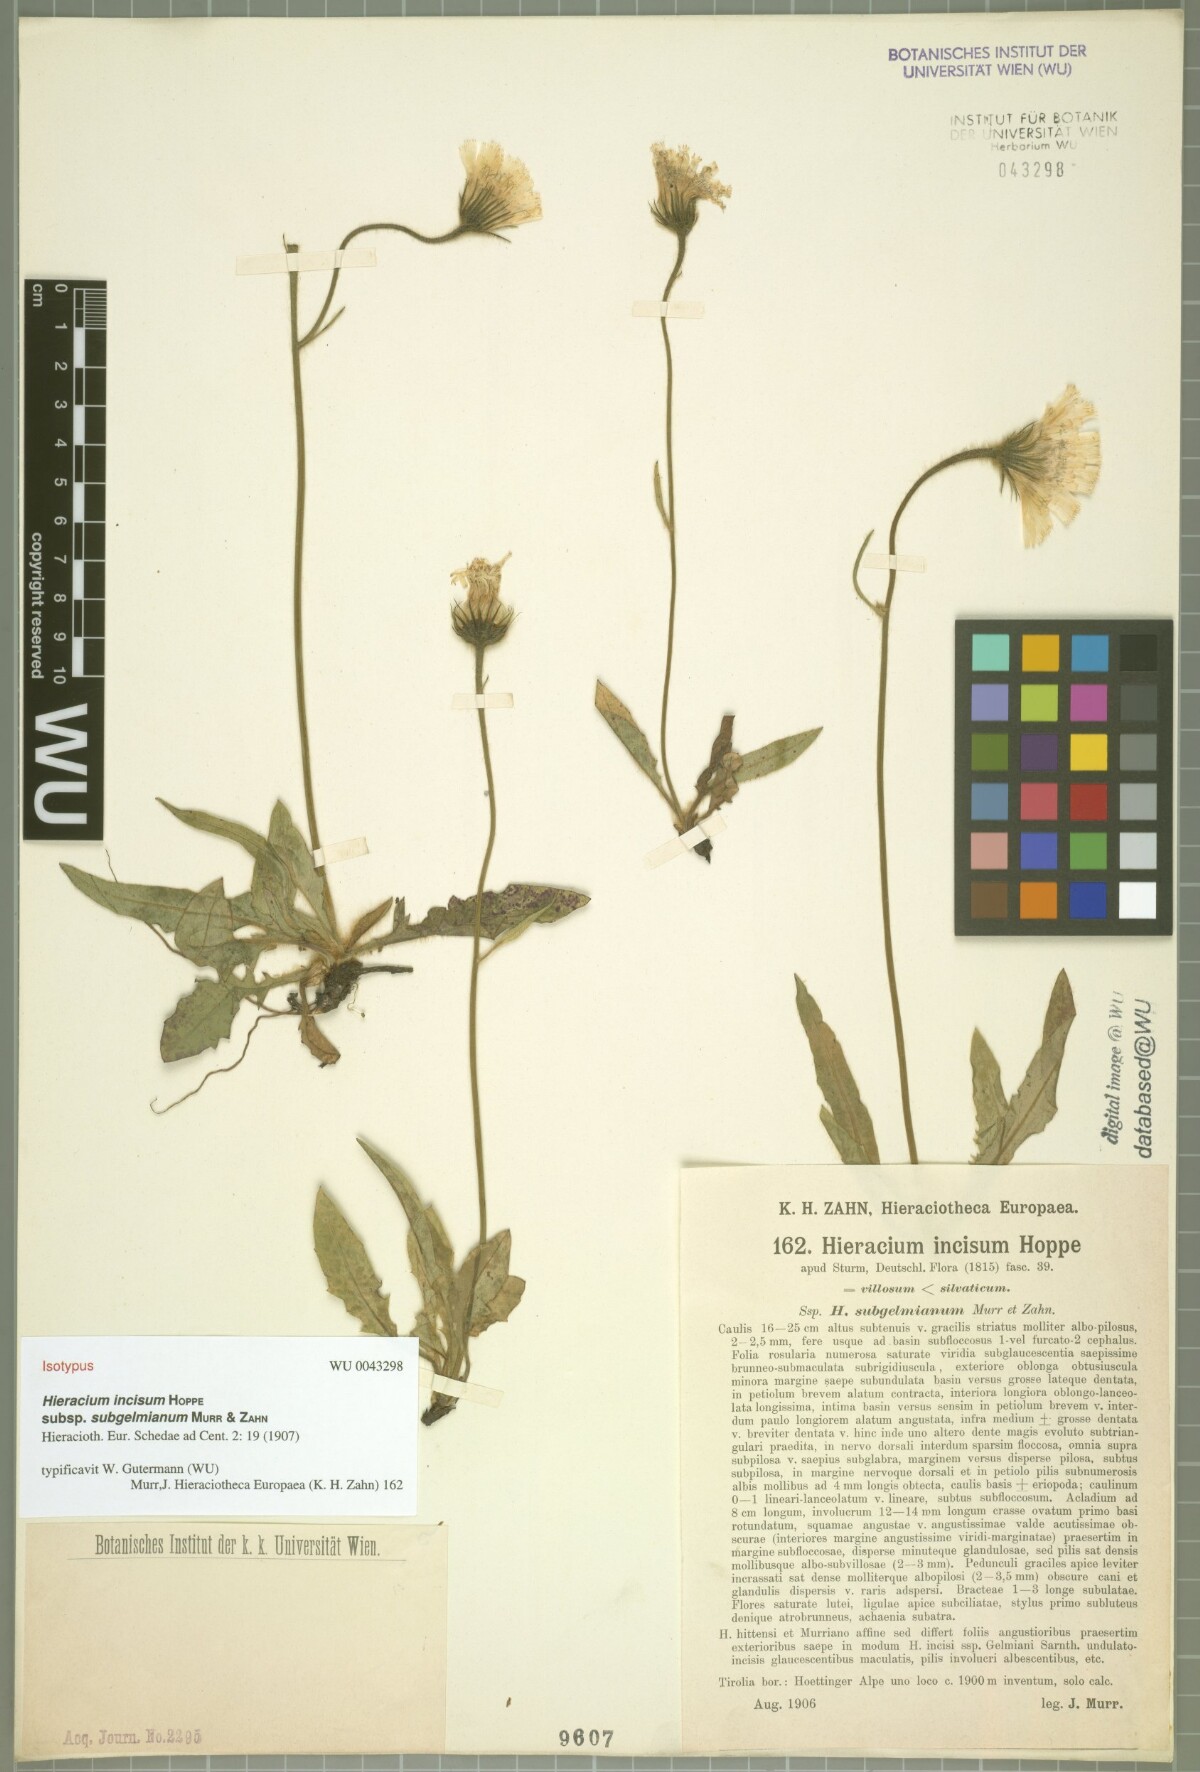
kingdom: Plantae
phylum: Tracheophyta
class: Magnoliopsida
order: Asterales
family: Asteraceae
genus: Hieracium
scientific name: Hieracium pallescens
